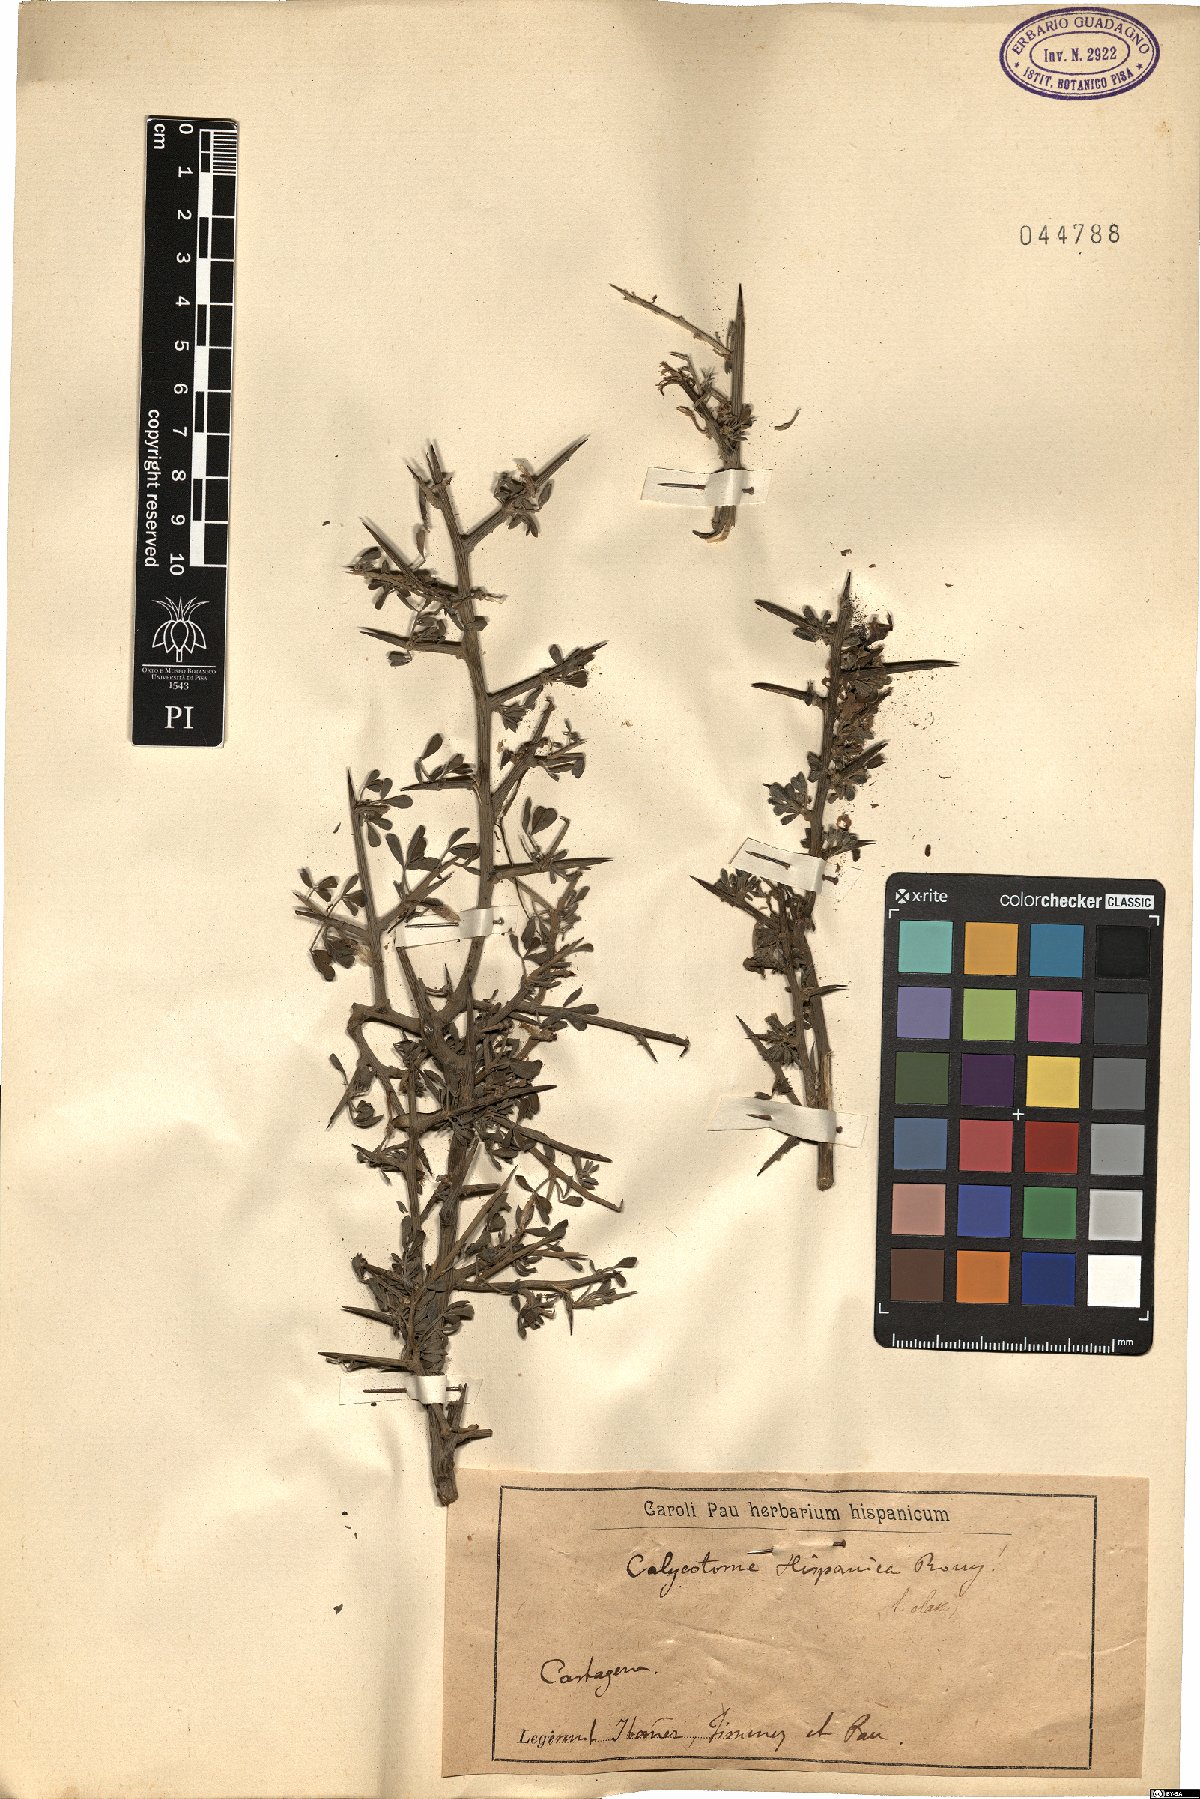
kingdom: Plantae
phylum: Tracheophyta
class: Magnoliopsida
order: Fabales
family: Fabaceae
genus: Calicotome
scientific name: Calicotome intermedia
